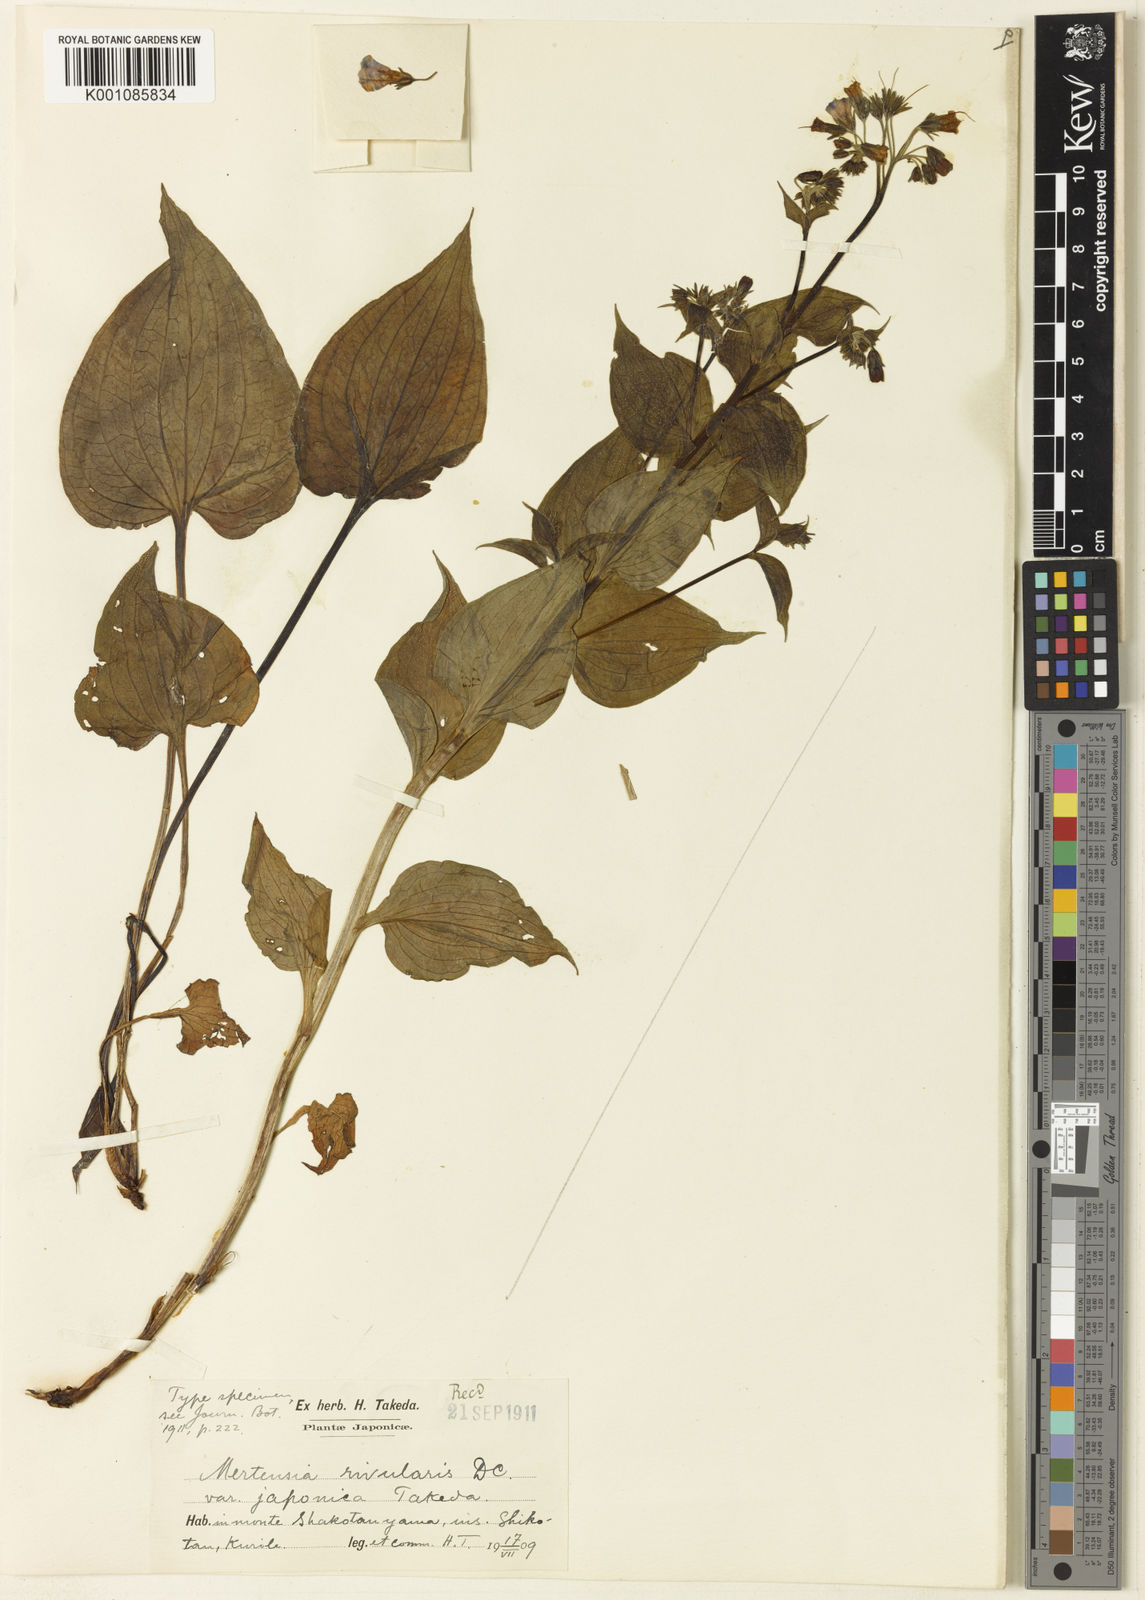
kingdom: Plantae
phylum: Tracheophyta
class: Magnoliopsida
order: Boraginales
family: Boraginaceae
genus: Mertensia
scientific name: Mertensia rivularis
